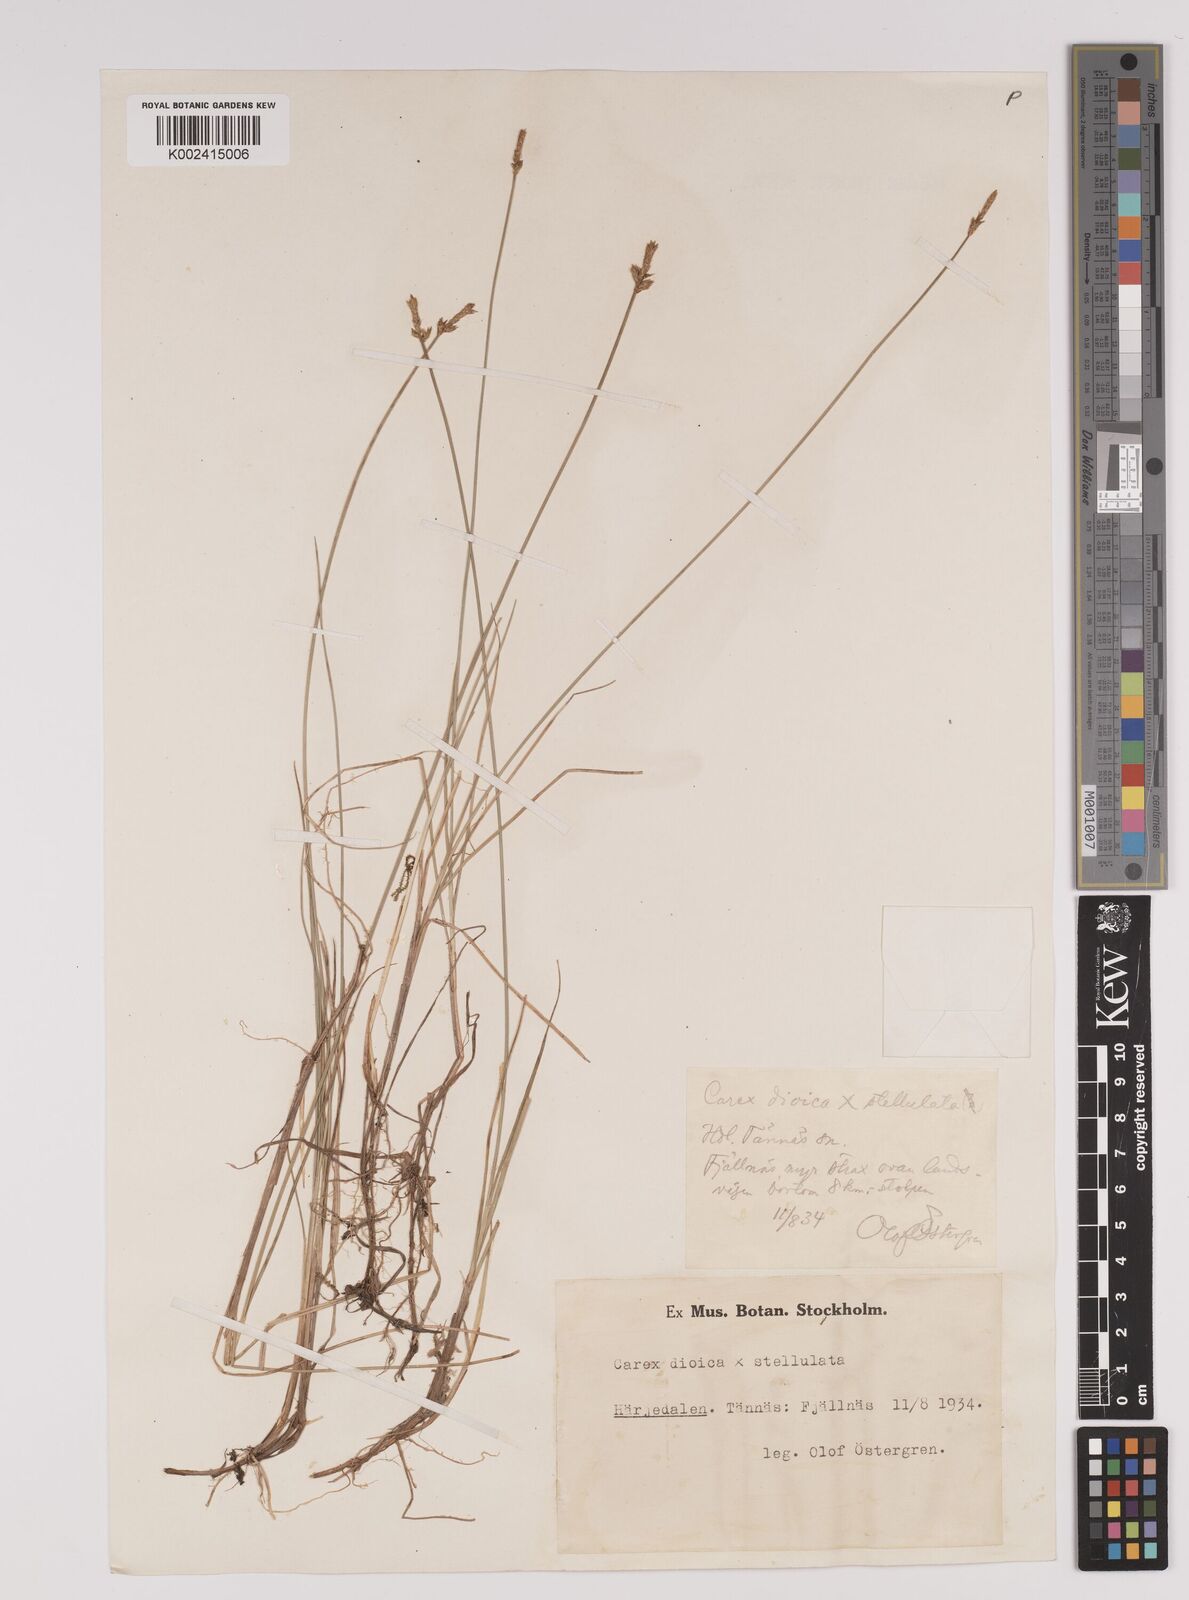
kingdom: Plantae
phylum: Tracheophyta
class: Liliopsida
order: Poales
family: Cyperaceae
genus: Carex
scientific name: Carex dioica
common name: Dioecious sedge
